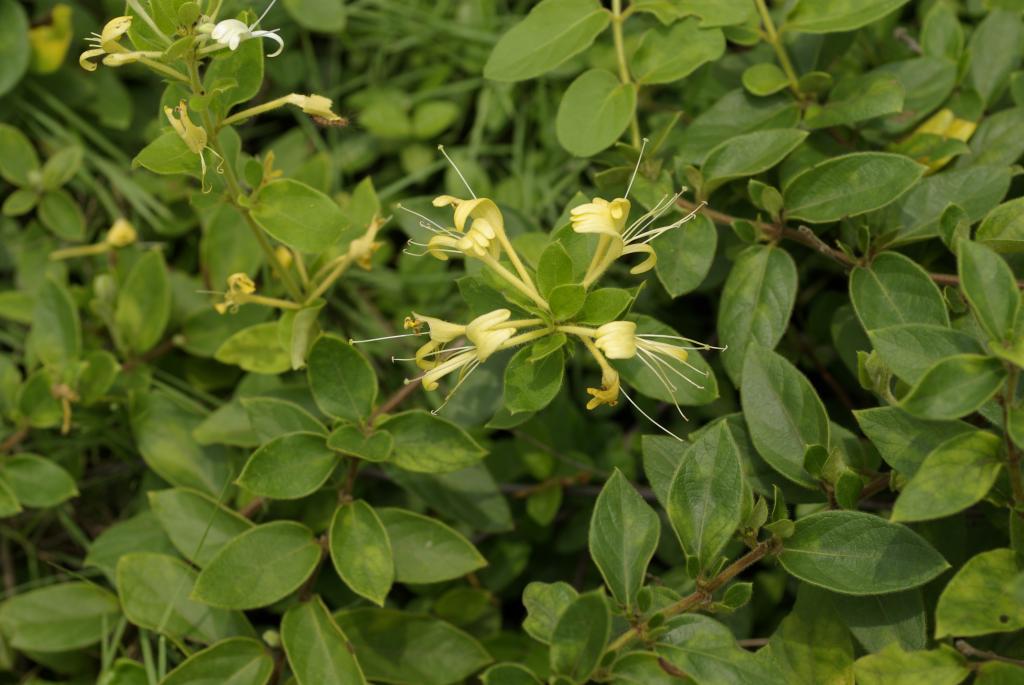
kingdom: Plantae
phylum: Tracheophyta
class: Magnoliopsida
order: Dipsacales
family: Caprifoliaceae
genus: Lonicera
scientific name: Lonicera japonica
